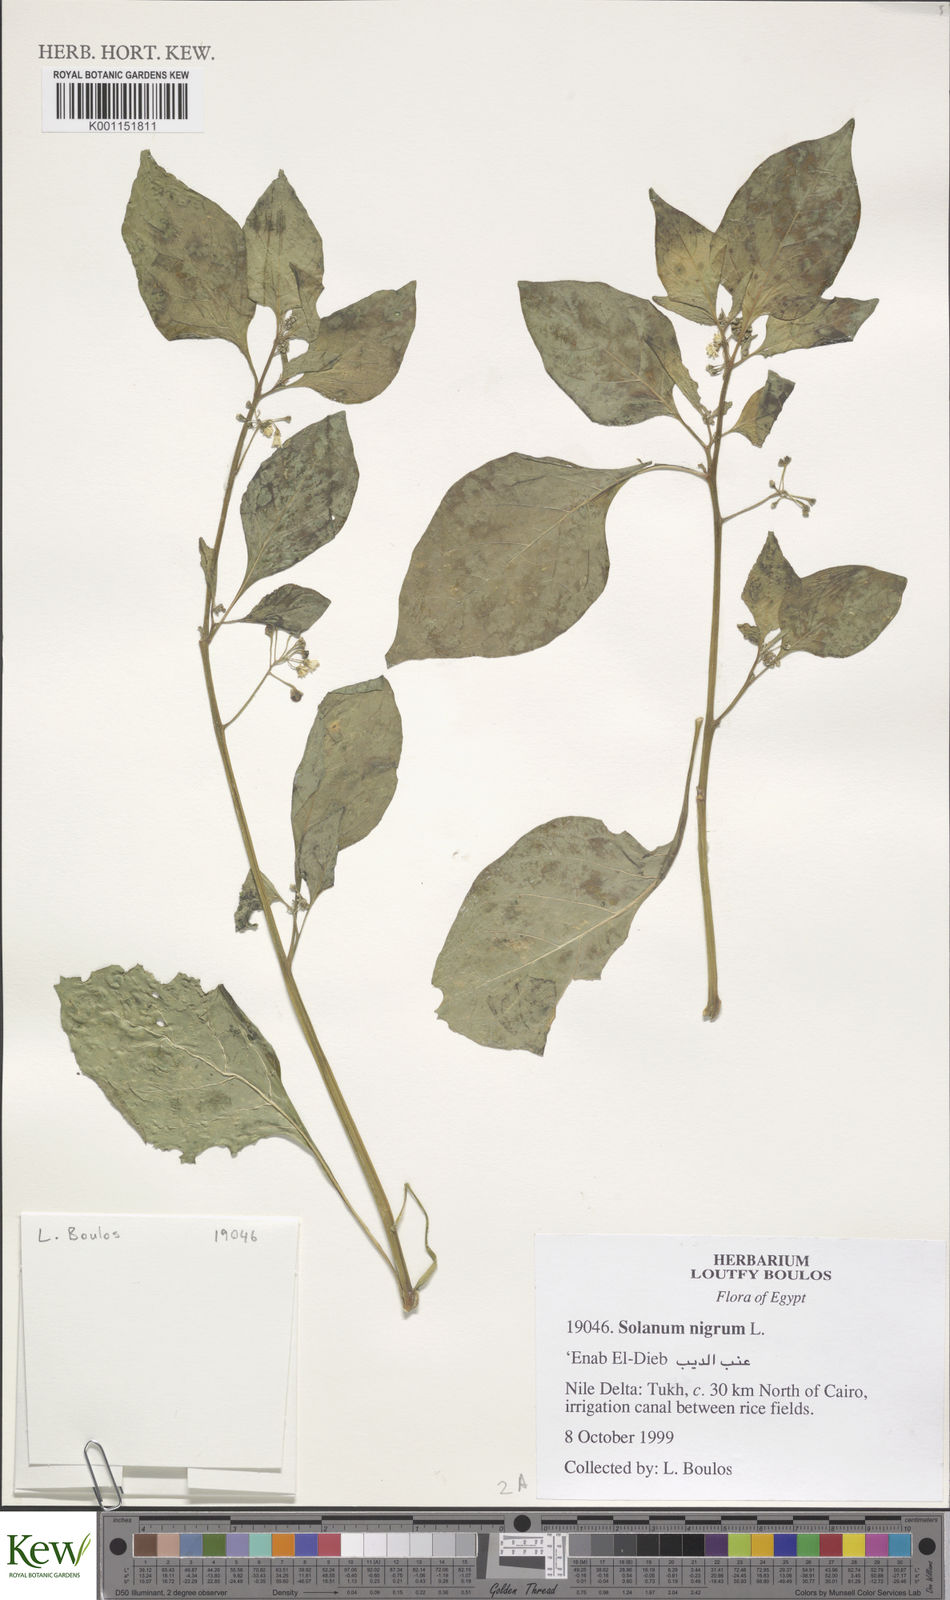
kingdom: Plantae
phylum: Tracheophyta
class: Magnoliopsida
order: Solanales
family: Solanaceae
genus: Solanum
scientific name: Solanum nigrum
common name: Black nightshade
